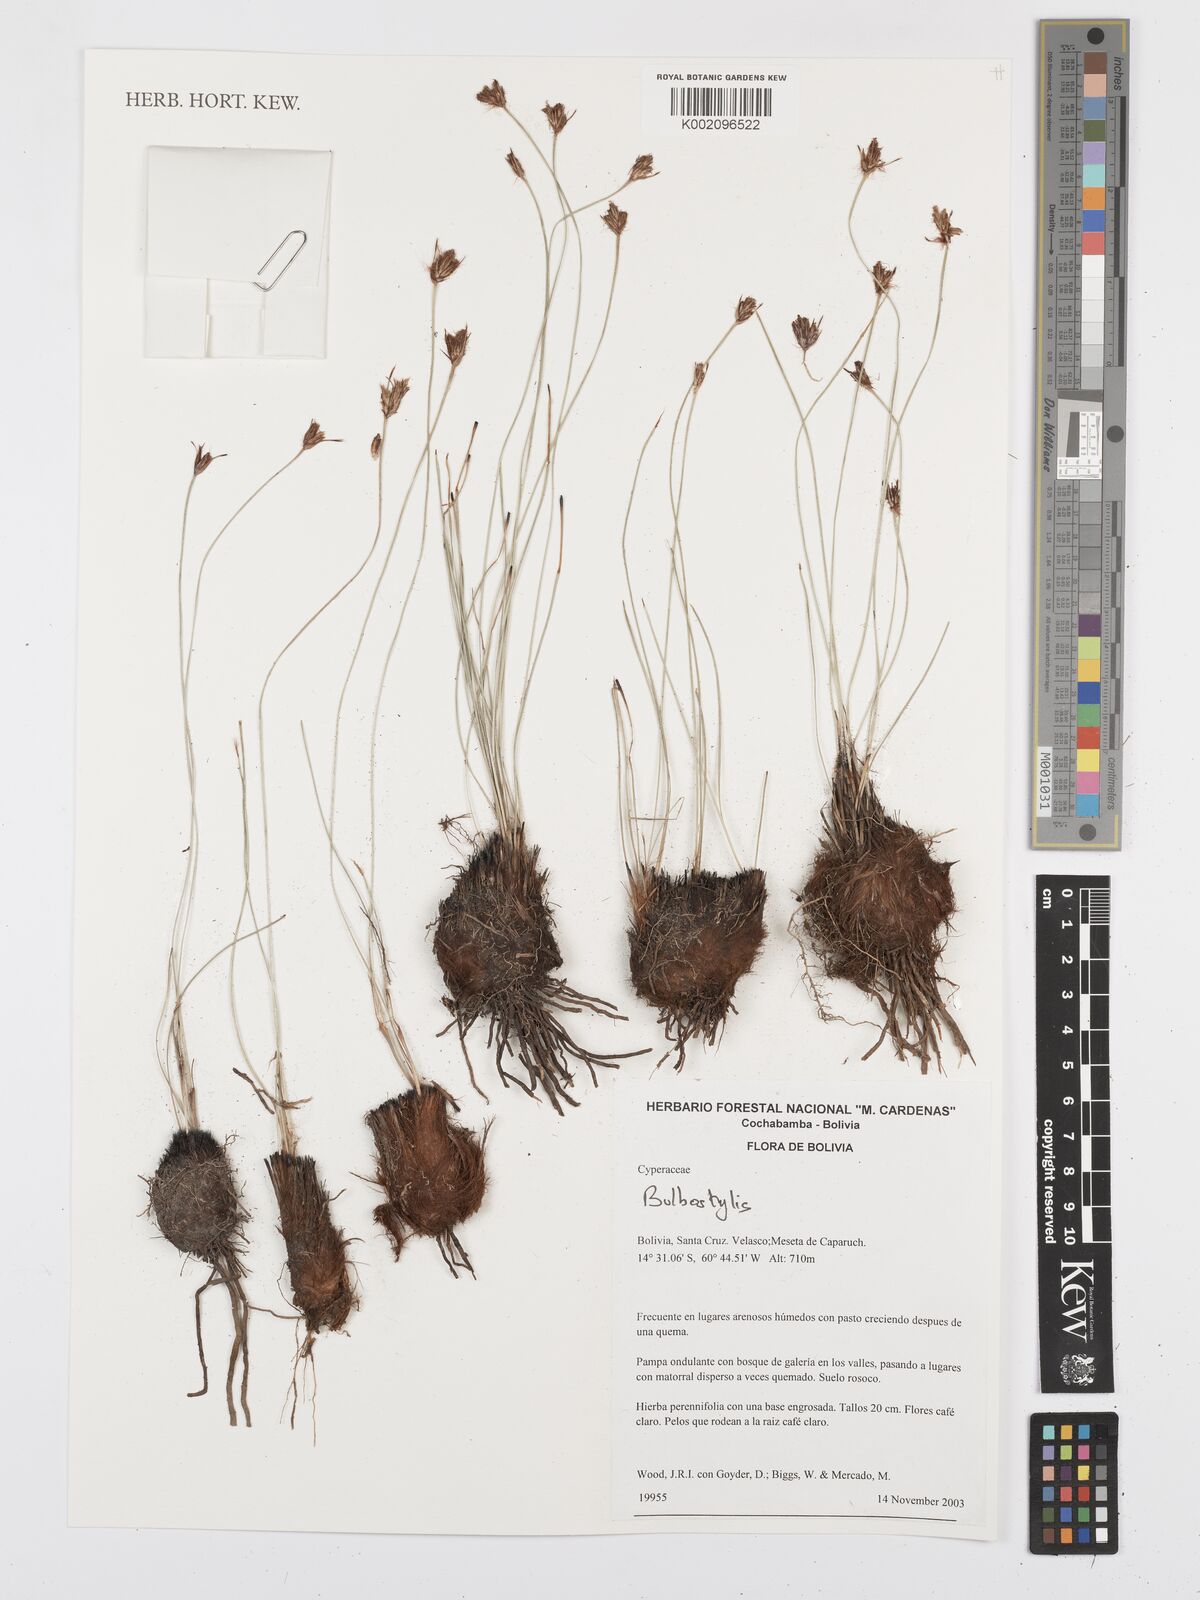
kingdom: Plantae
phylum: Tracheophyta
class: Liliopsida
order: Poales
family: Cyperaceae
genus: Bulbostylis
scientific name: Bulbostylis
